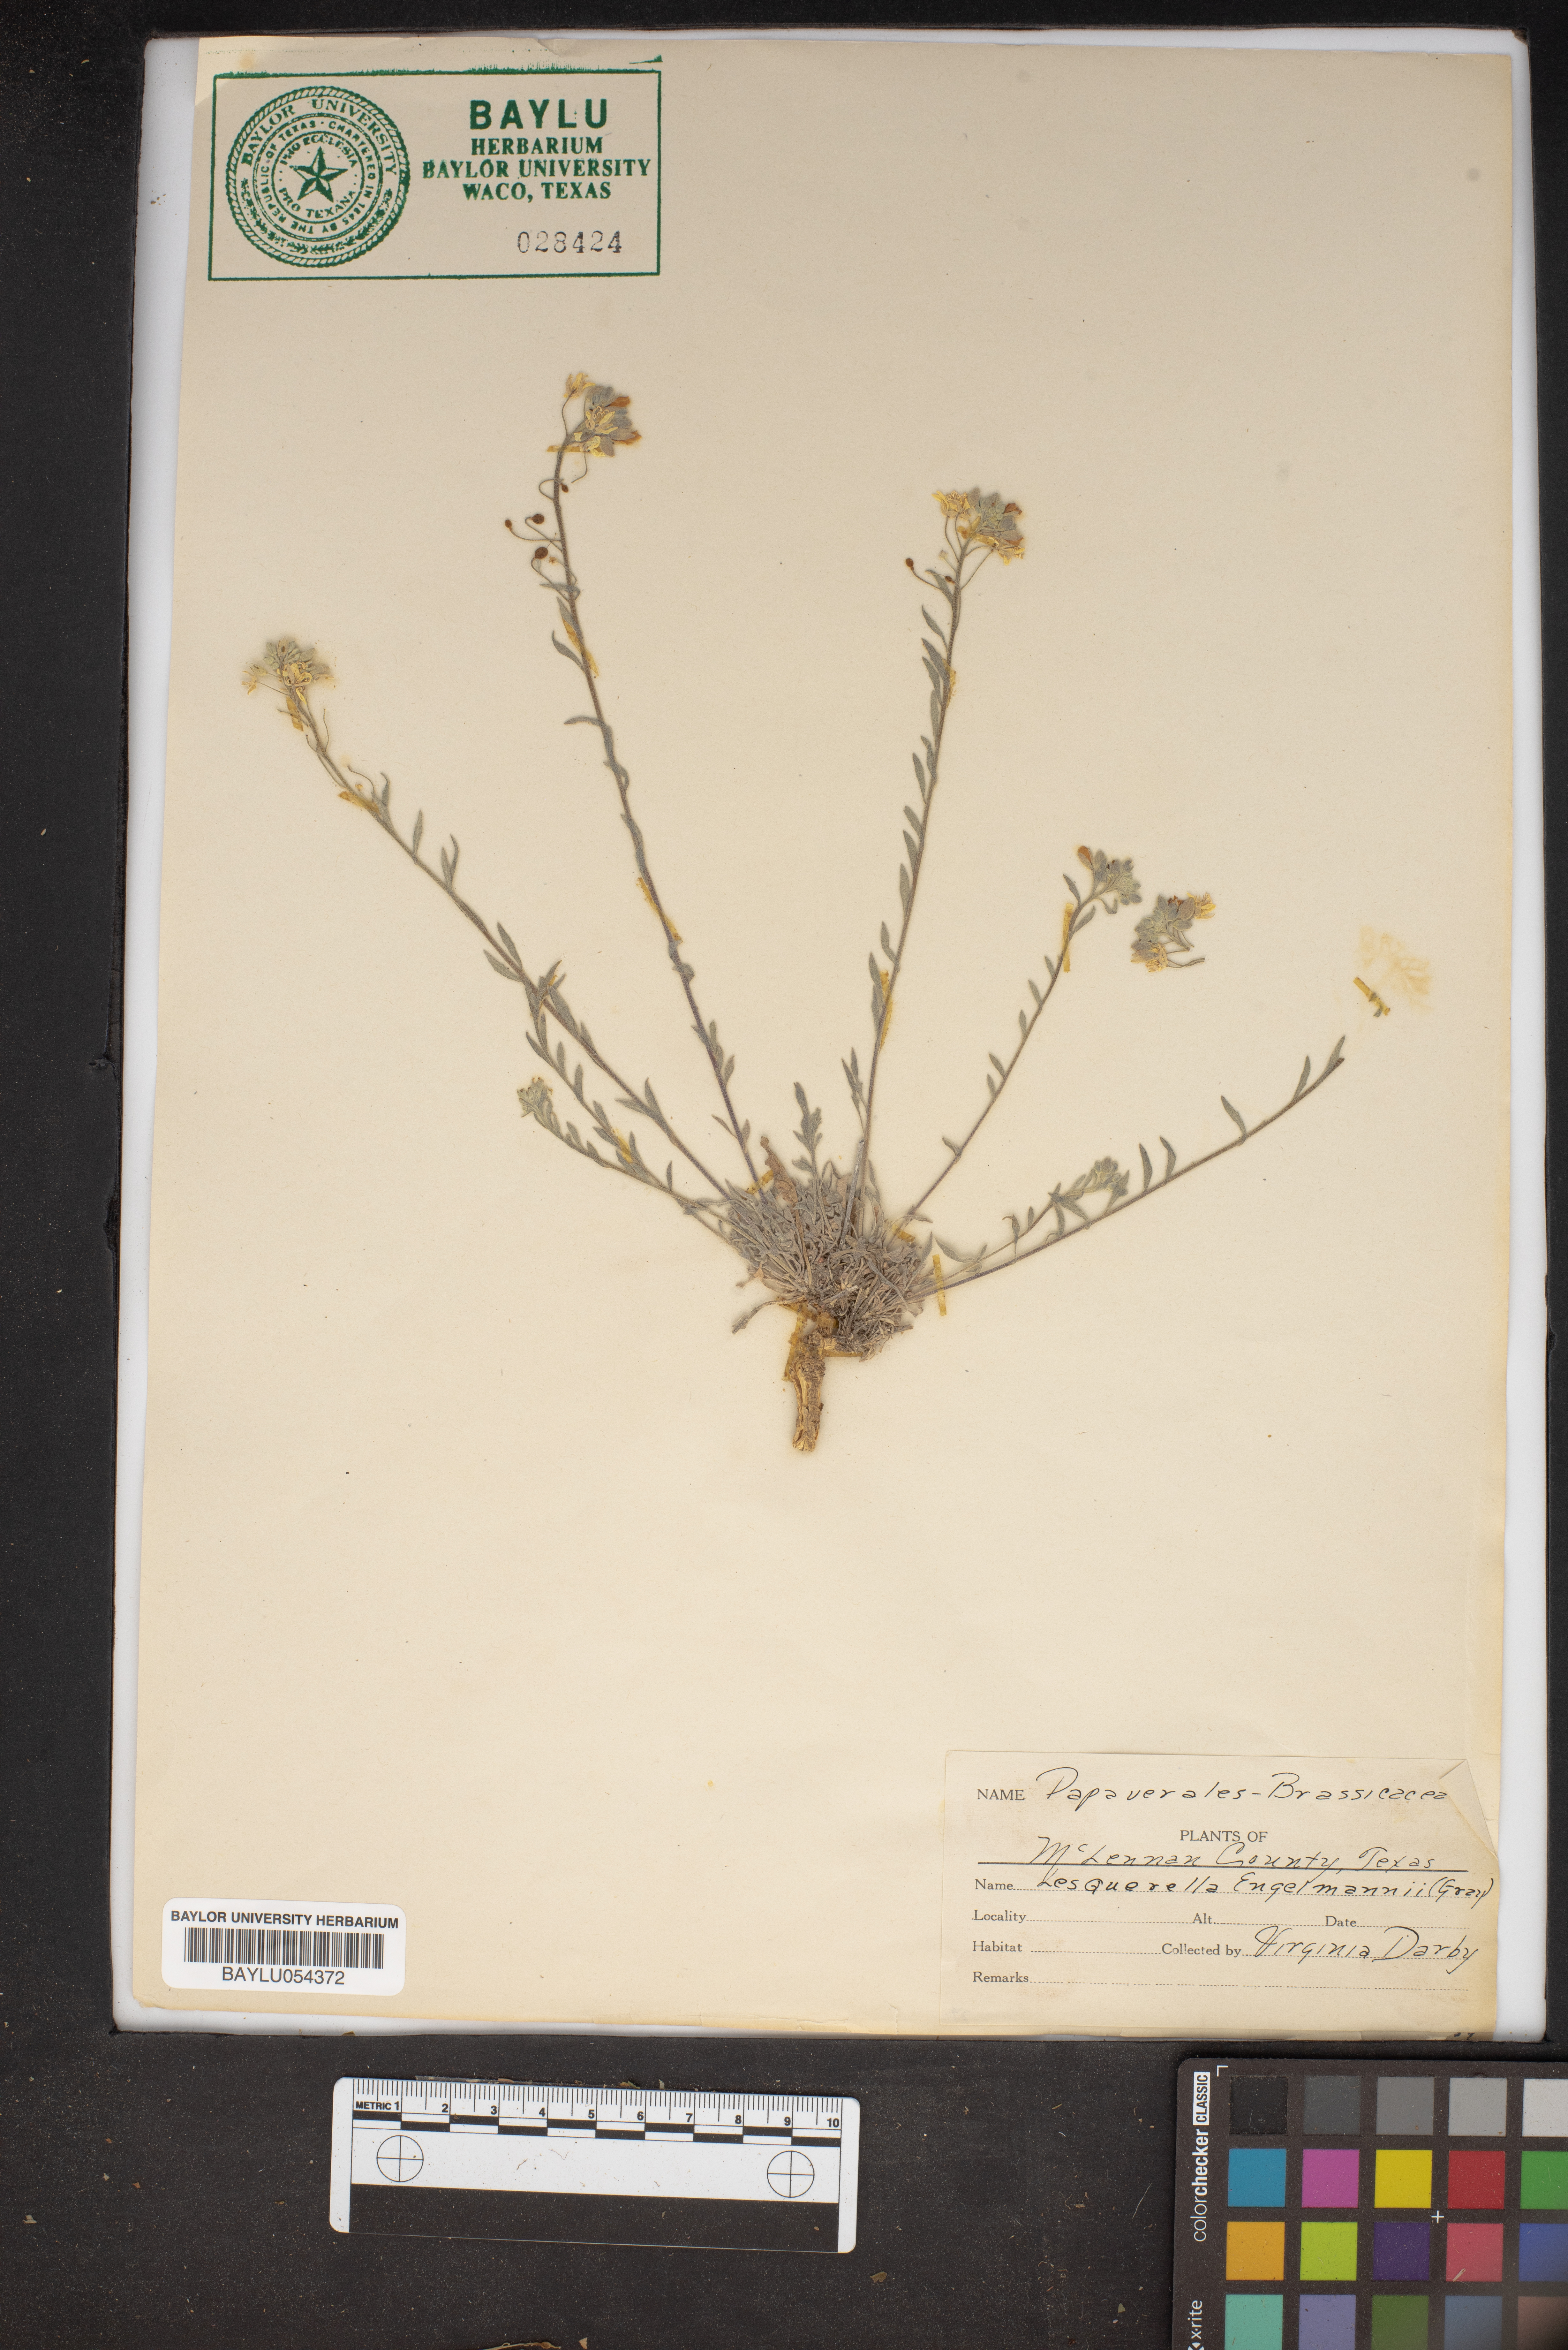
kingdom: Plantae
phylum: Tracheophyta
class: Magnoliopsida
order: Brassicales
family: Brassicaceae
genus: Physaria
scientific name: Physaria engelmannii
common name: Engelmann's bladderpod
